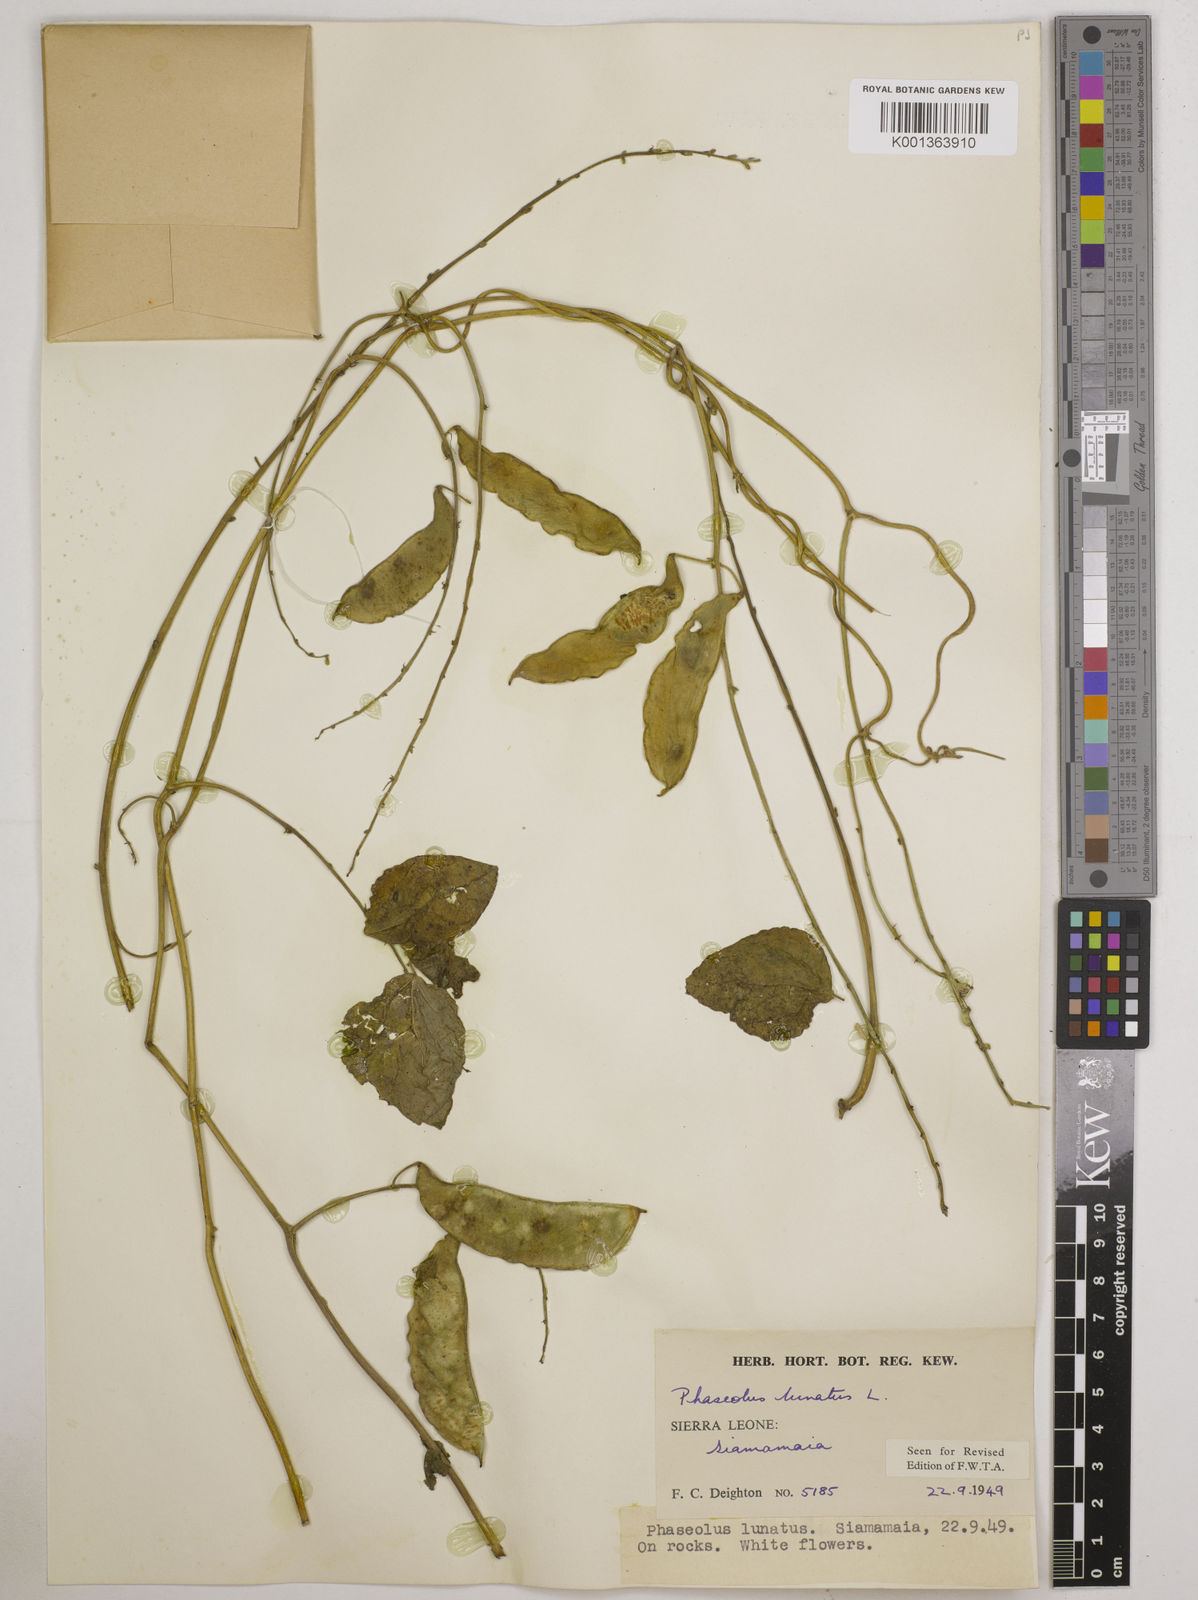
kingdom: Plantae
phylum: Tracheophyta
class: Magnoliopsida
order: Fabales
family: Fabaceae
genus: Phaseolus
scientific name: Phaseolus lunatus
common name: Sieva bean
